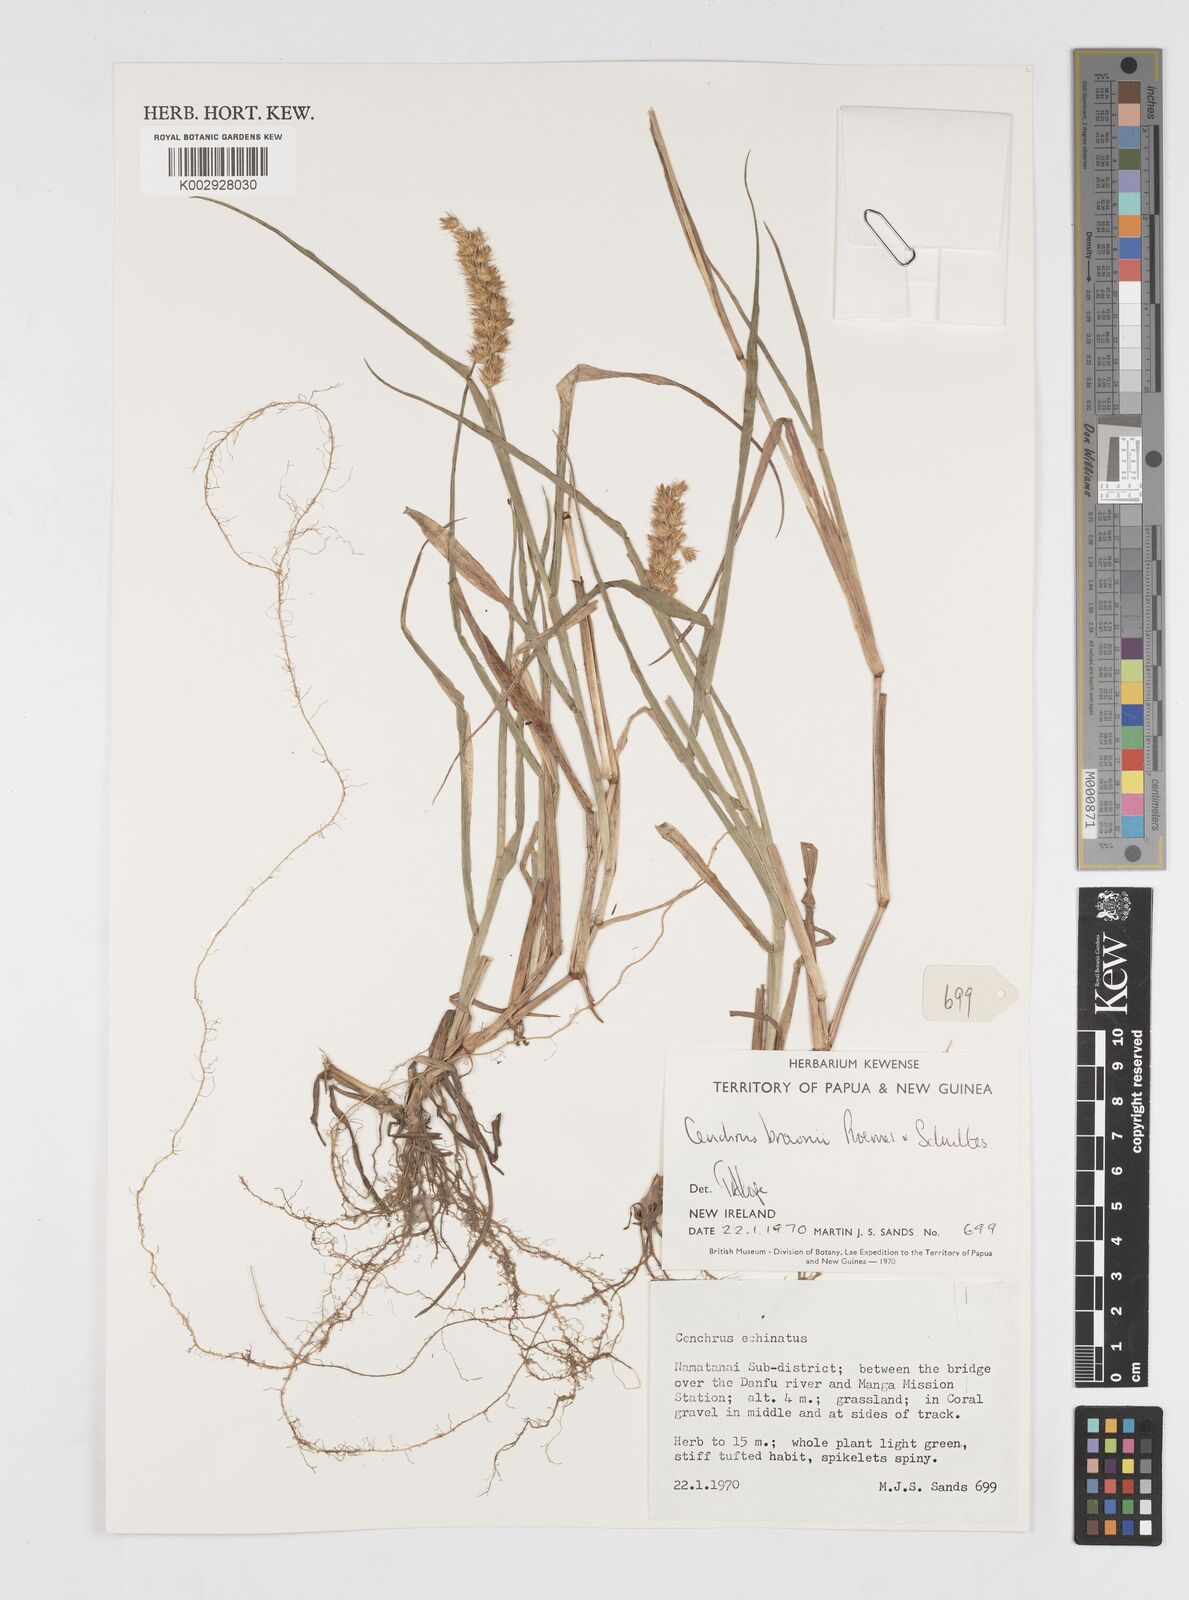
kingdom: Plantae
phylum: Tracheophyta
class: Liliopsida
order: Poales
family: Poaceae
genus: Cenchrus
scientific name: Cenchrus brownii
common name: Slim-bristle sandbur
